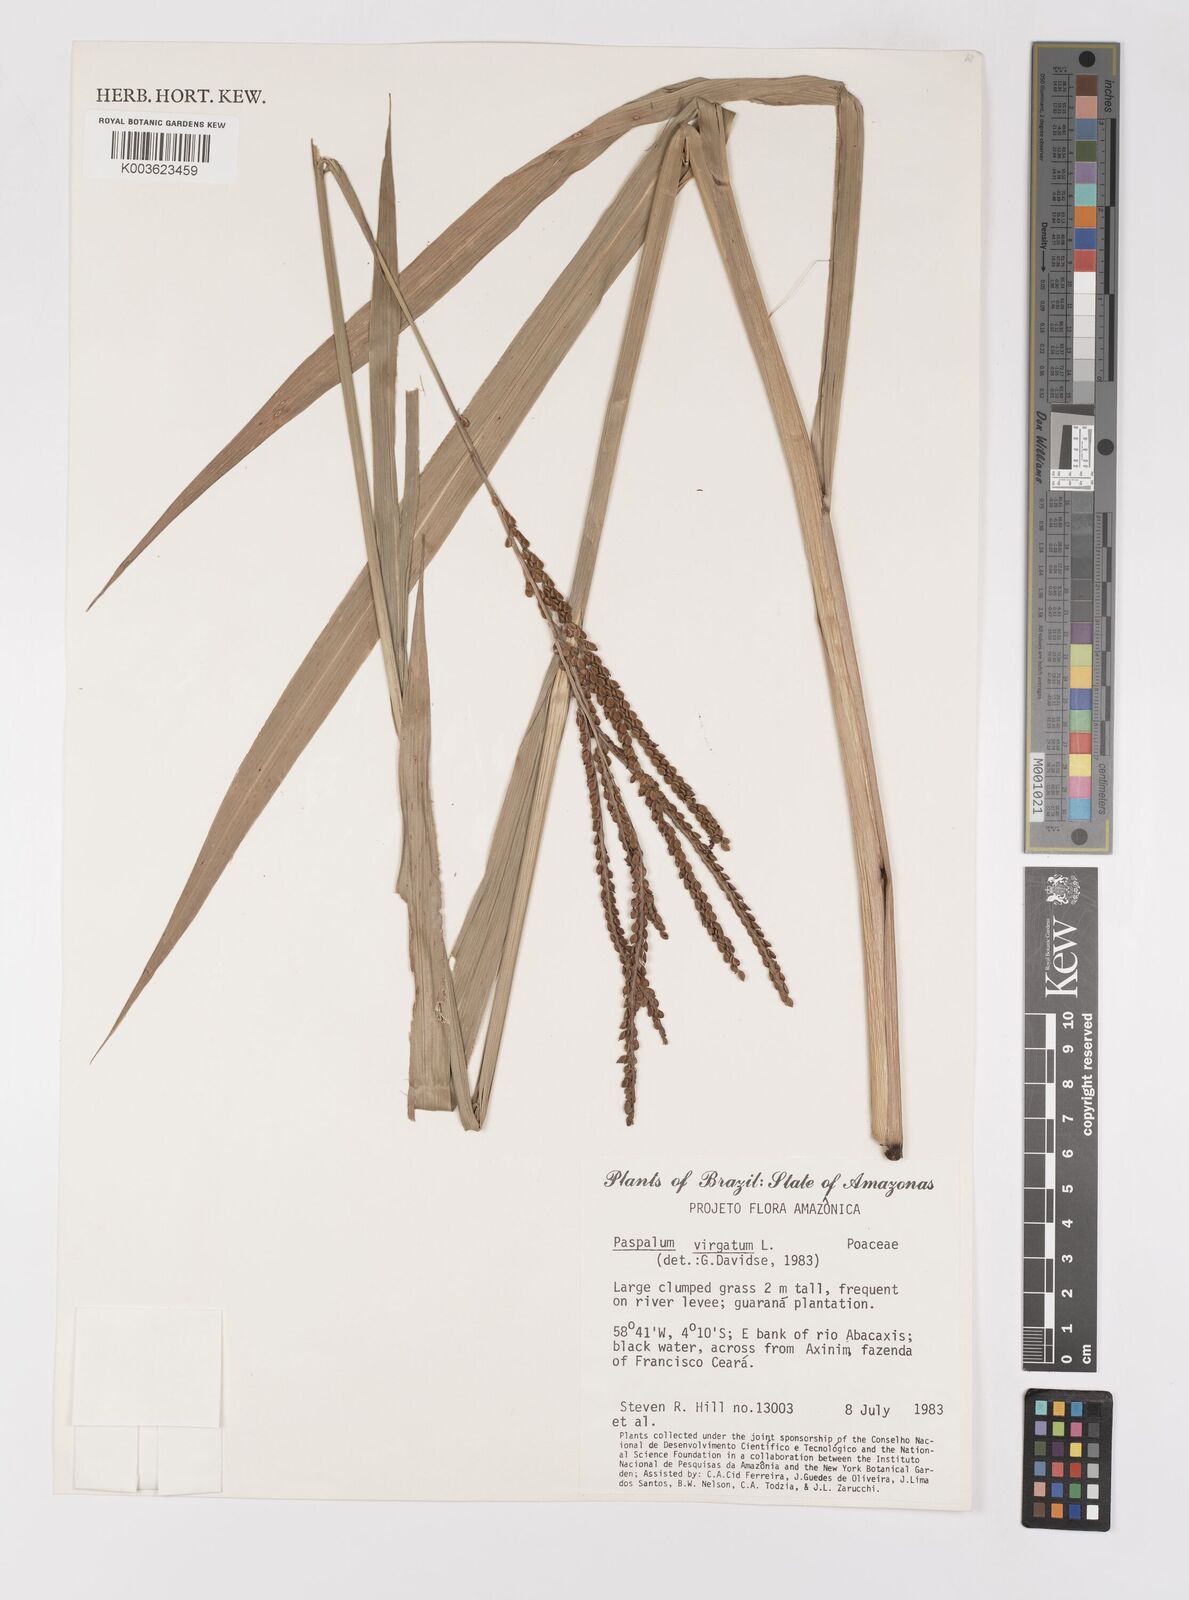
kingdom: Plantae
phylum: Tracheophyta
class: Liliopsida
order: Poales
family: Poaceae
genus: Paspalum
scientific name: Paspalum virgatum
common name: Talquezal
